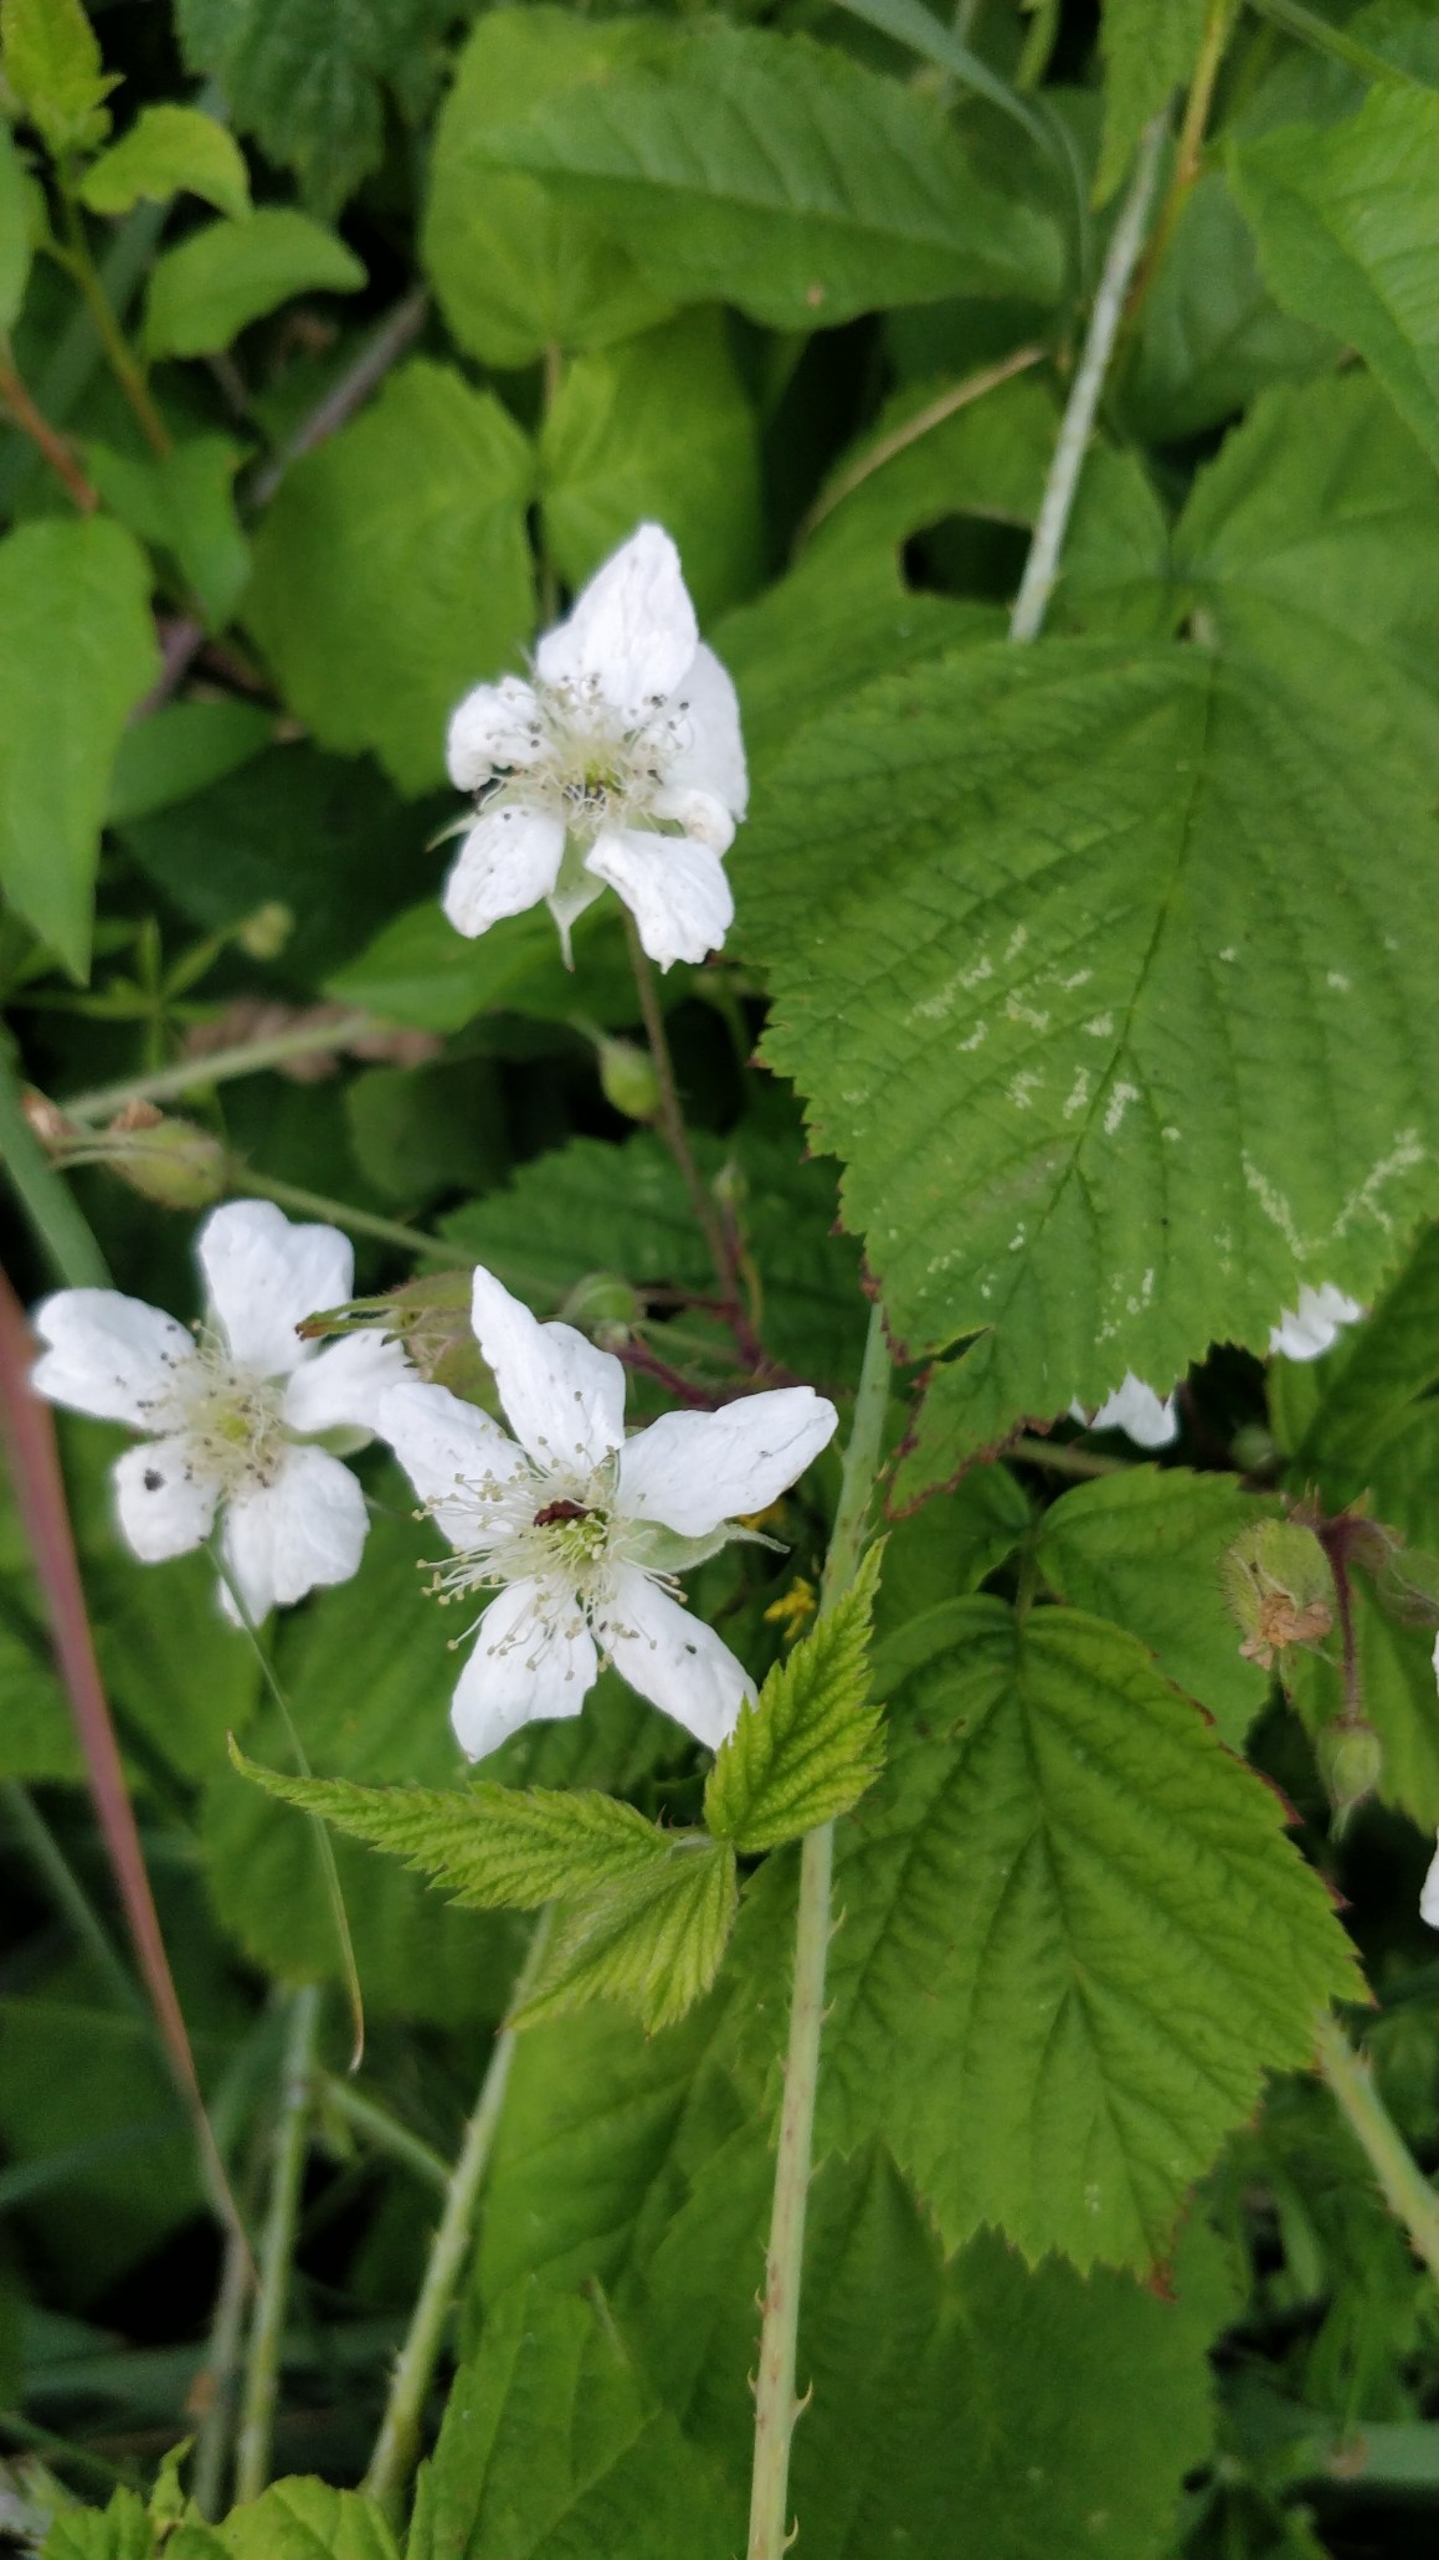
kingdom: Plantae
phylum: Tracheophyta
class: Magnoliopsida
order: Rosales
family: Rosaceae
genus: Rubus
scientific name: Rubus caesius
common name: Korbær
